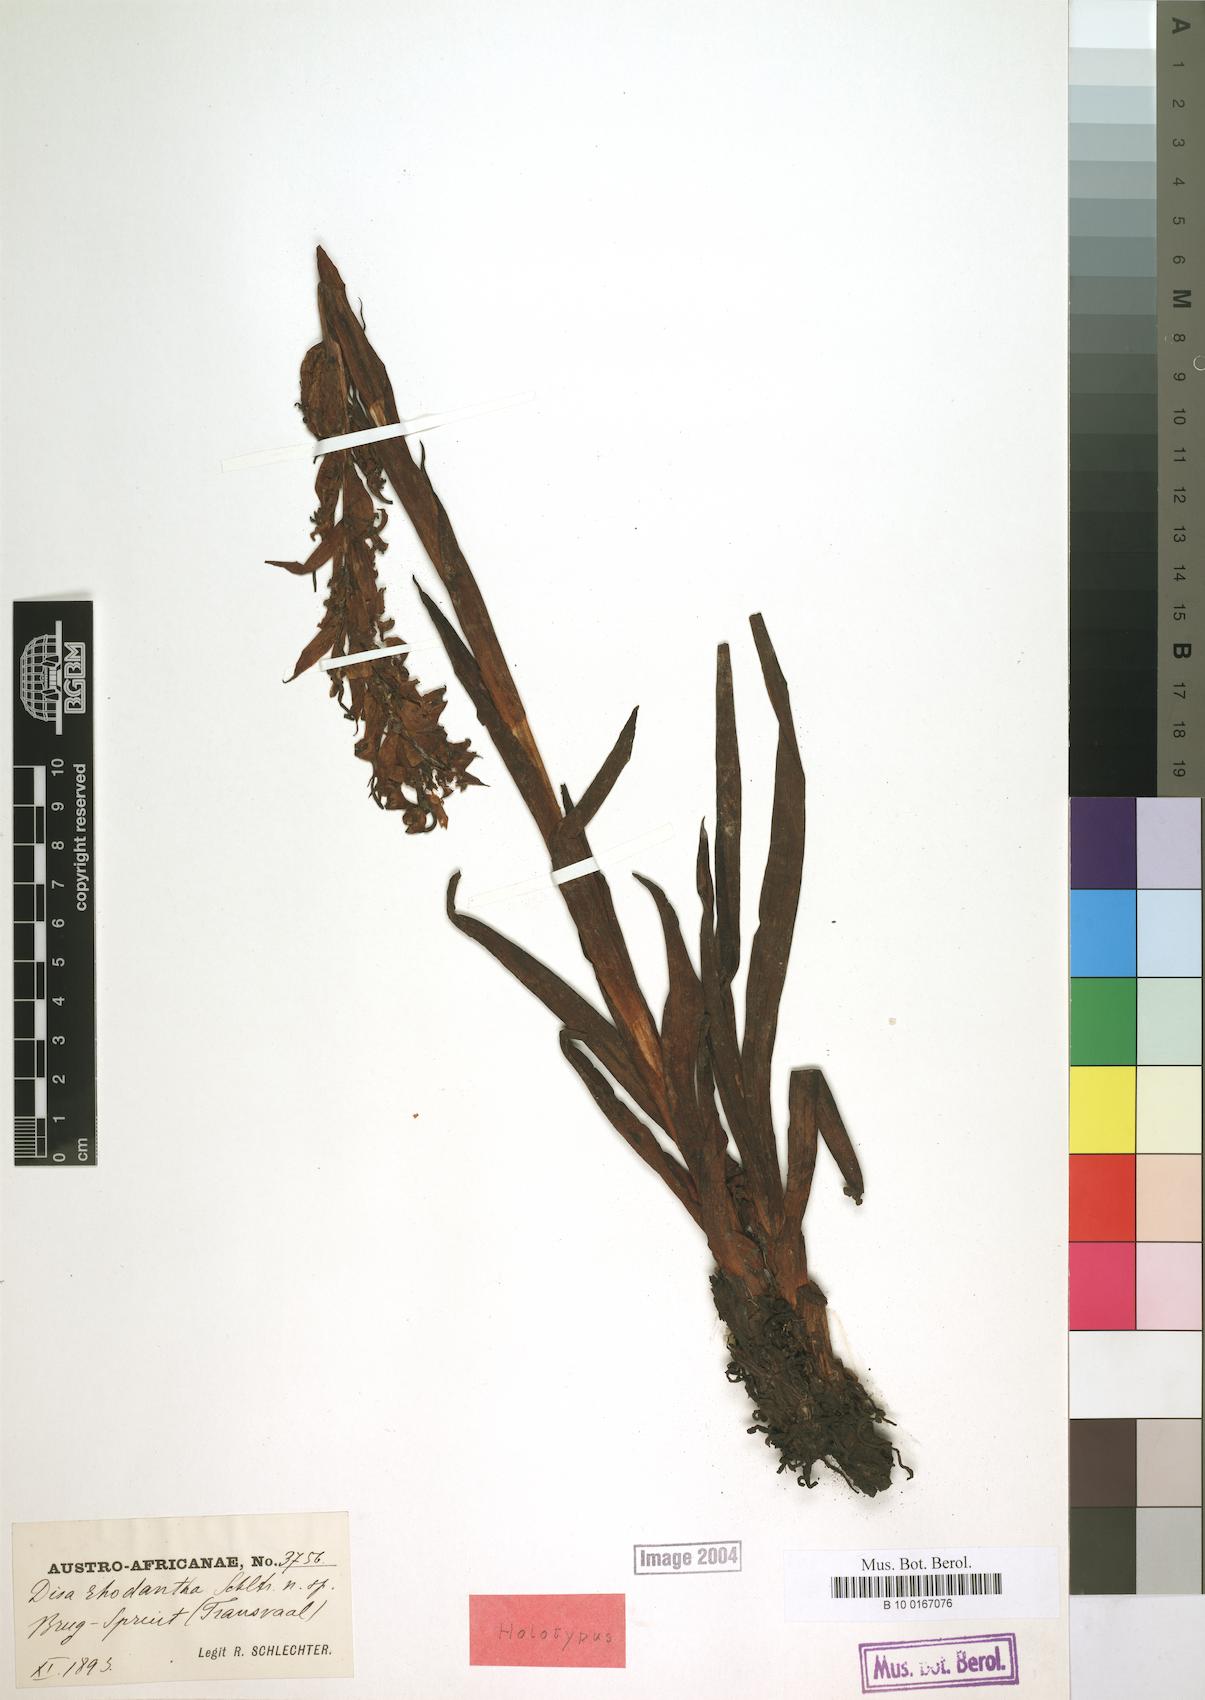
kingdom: Plantae
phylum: Tracheophyta
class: Liliopsida
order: Asparagales
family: Orchidaceae
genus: Disa
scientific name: Disa rhodantha
